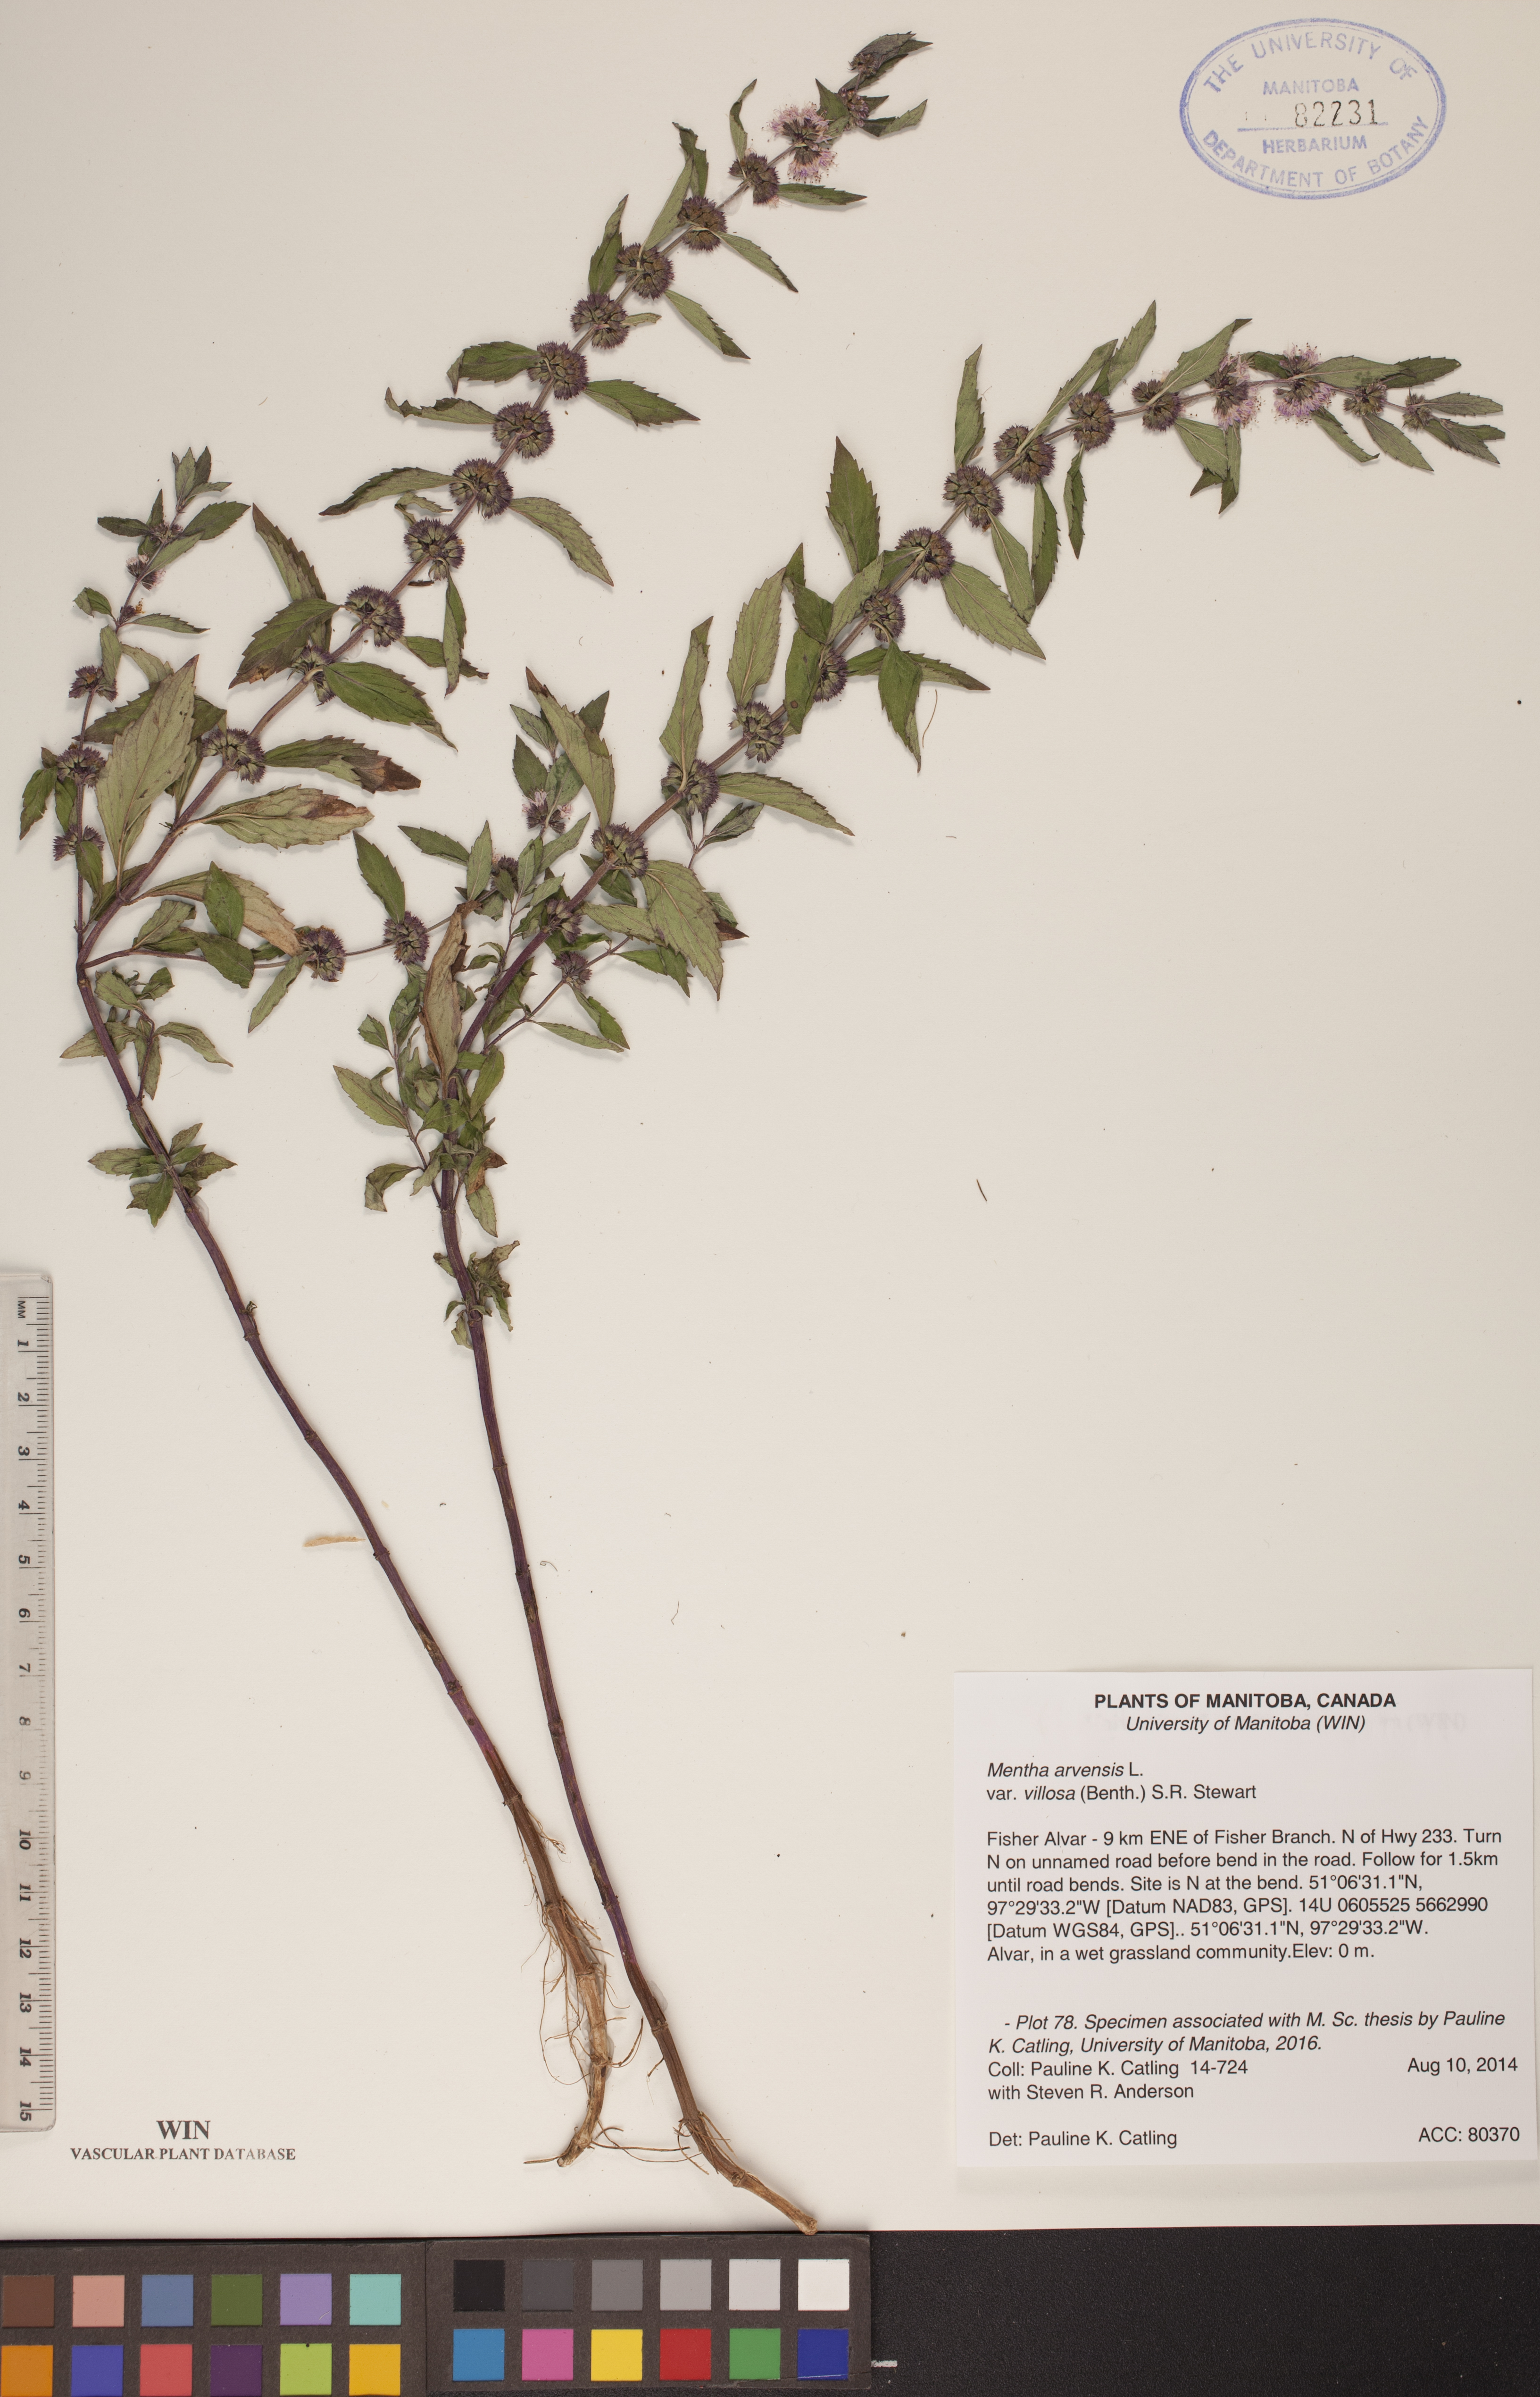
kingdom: Plantae
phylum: Tracheophyta
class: Magnoliopsida
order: Lamiales
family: Lamiaceae
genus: Mentha
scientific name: Mentha canadensis
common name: American corn mint
